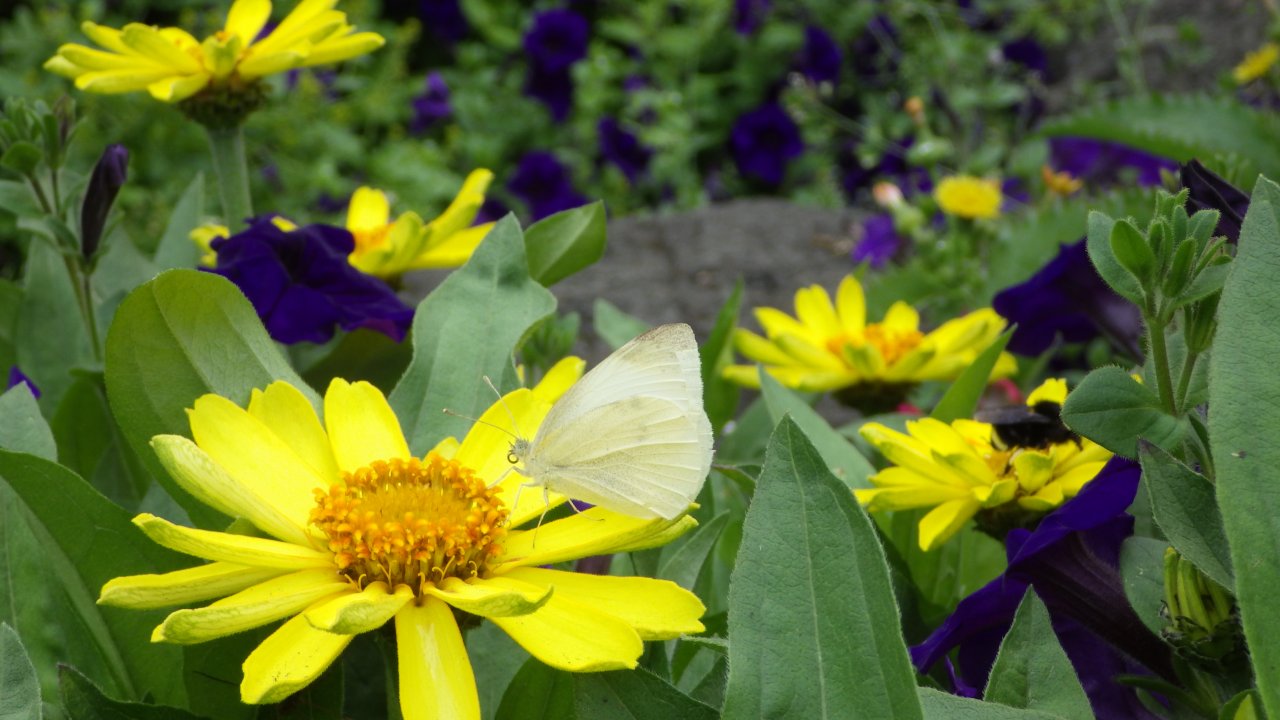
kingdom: Animalia
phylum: Arthropoda
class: Insecta
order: Lepidoptera
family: Pieridae
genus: Pieris
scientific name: Pieris rapae
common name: Cabbage White
